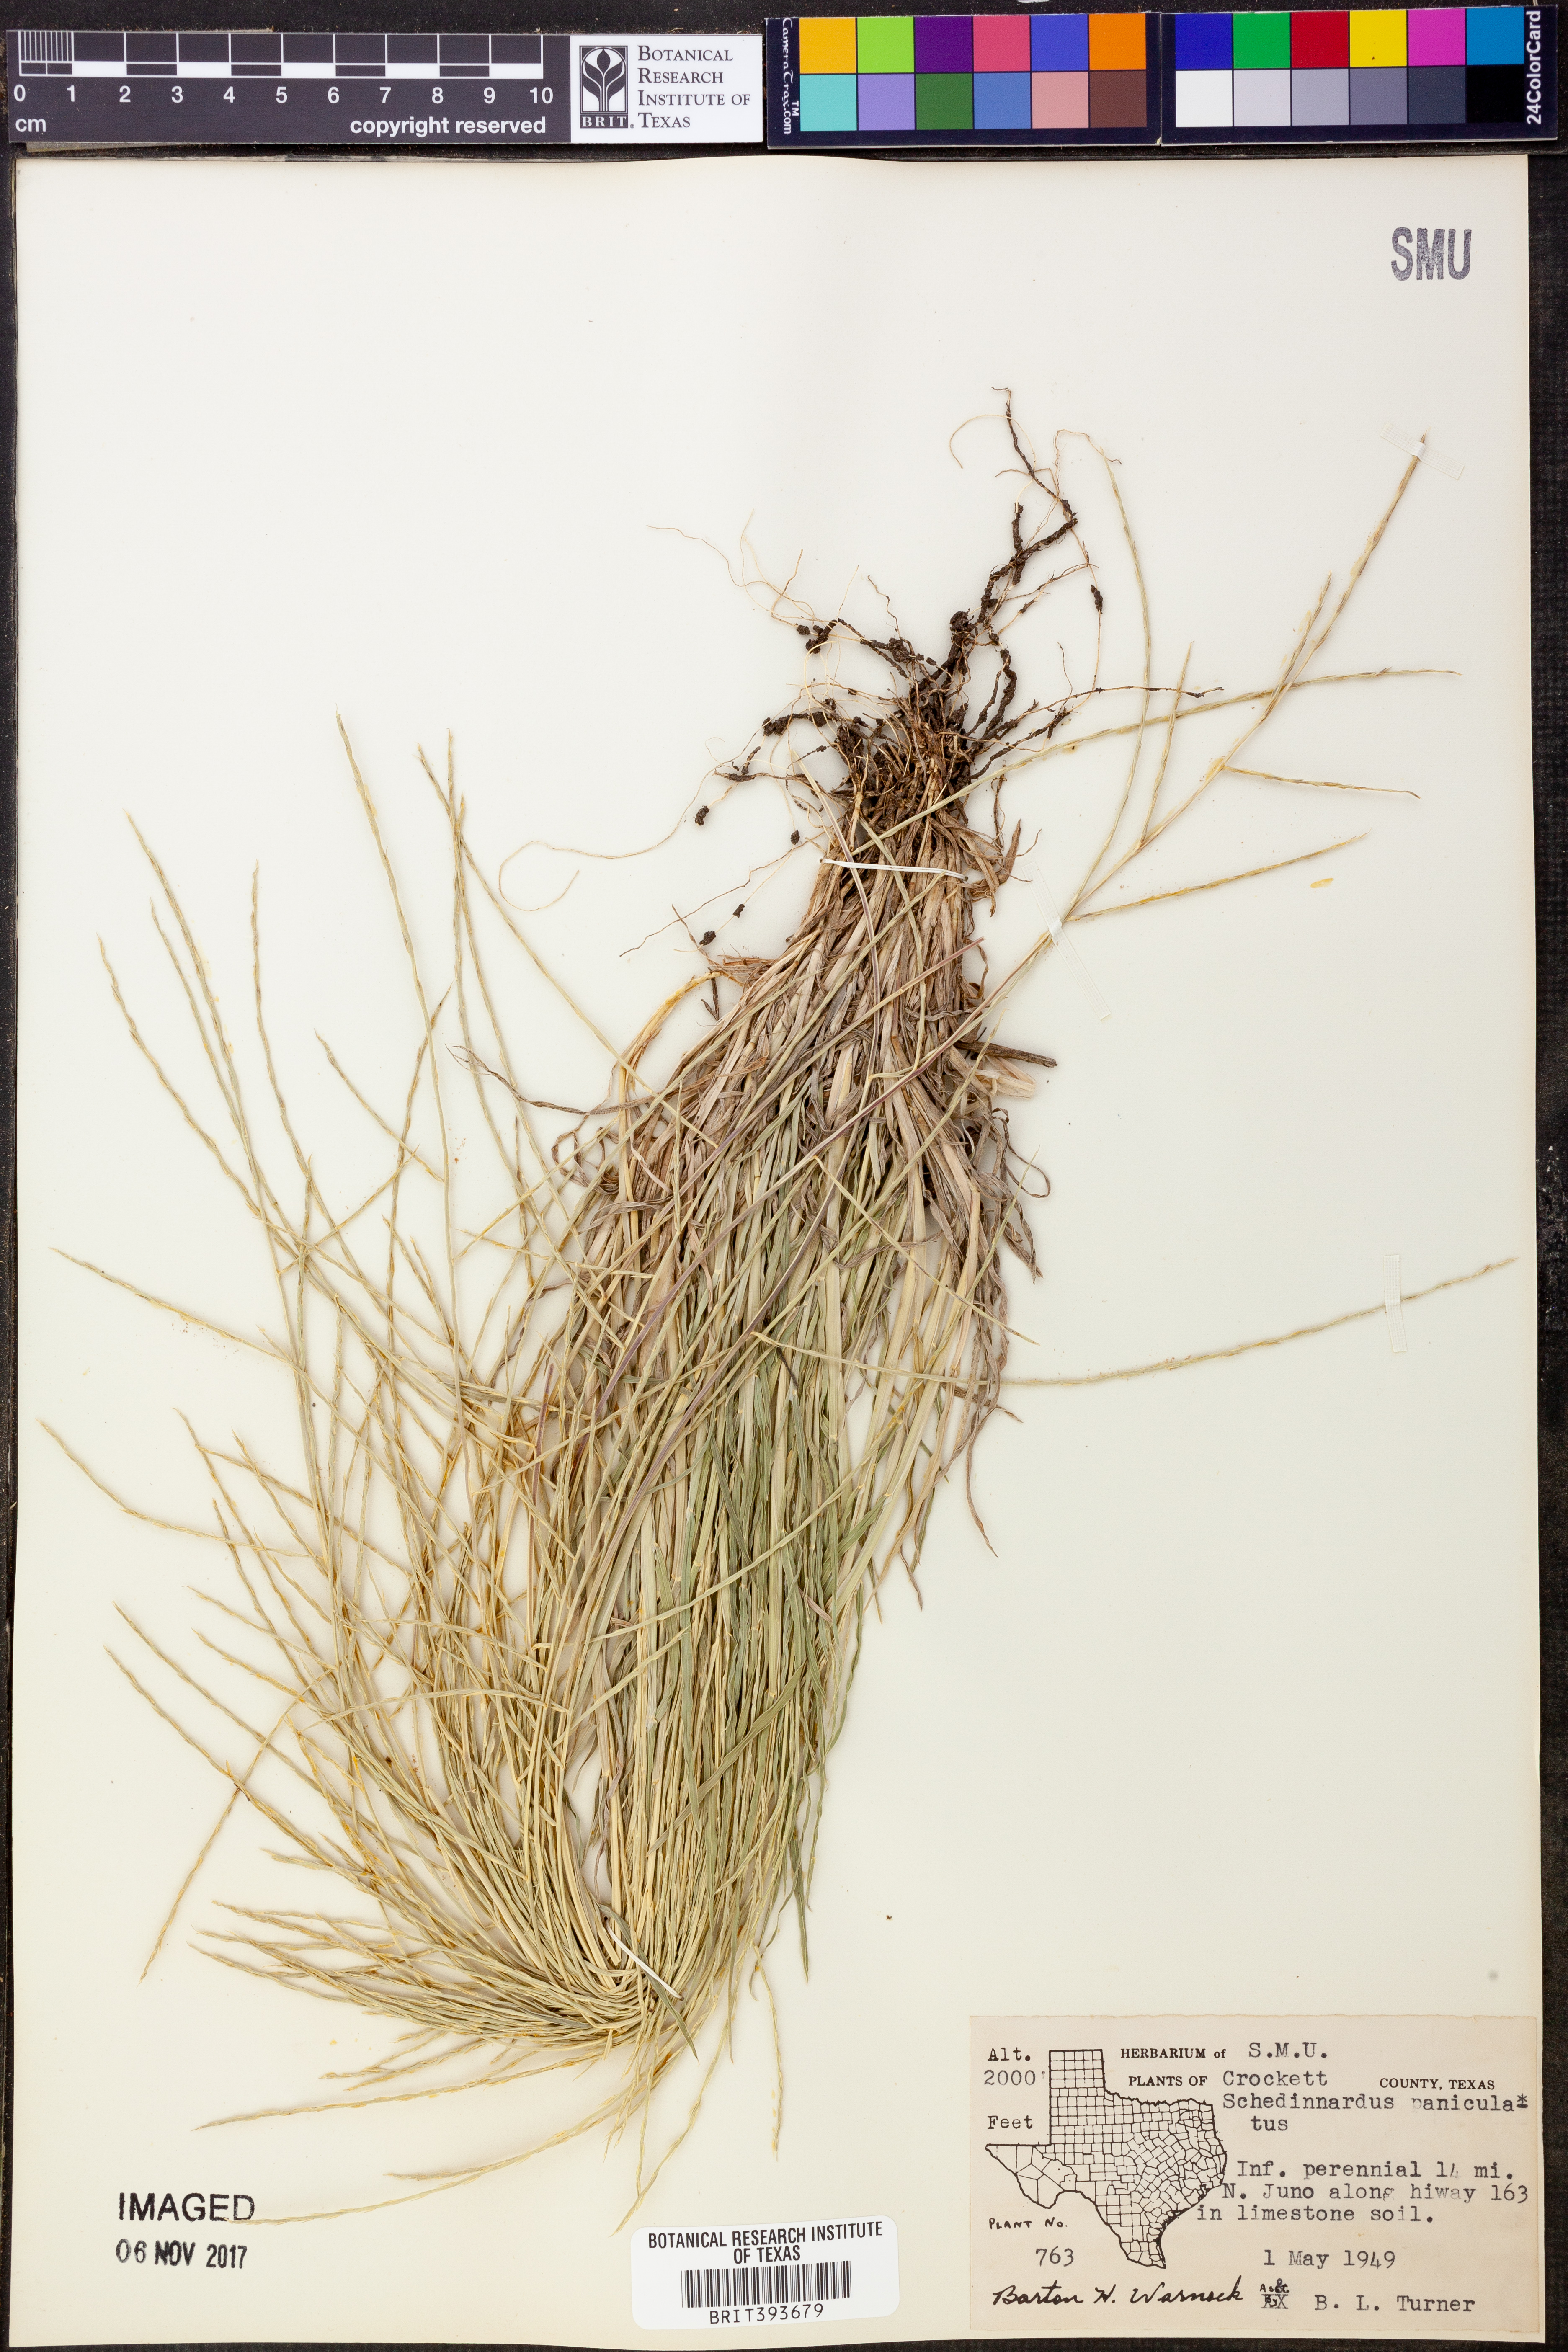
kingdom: Plantae
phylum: Tracheophyta
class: Liliopsida
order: Poales
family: Poaceae
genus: Muhlenbergia
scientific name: Muhlenbergia paniculata
